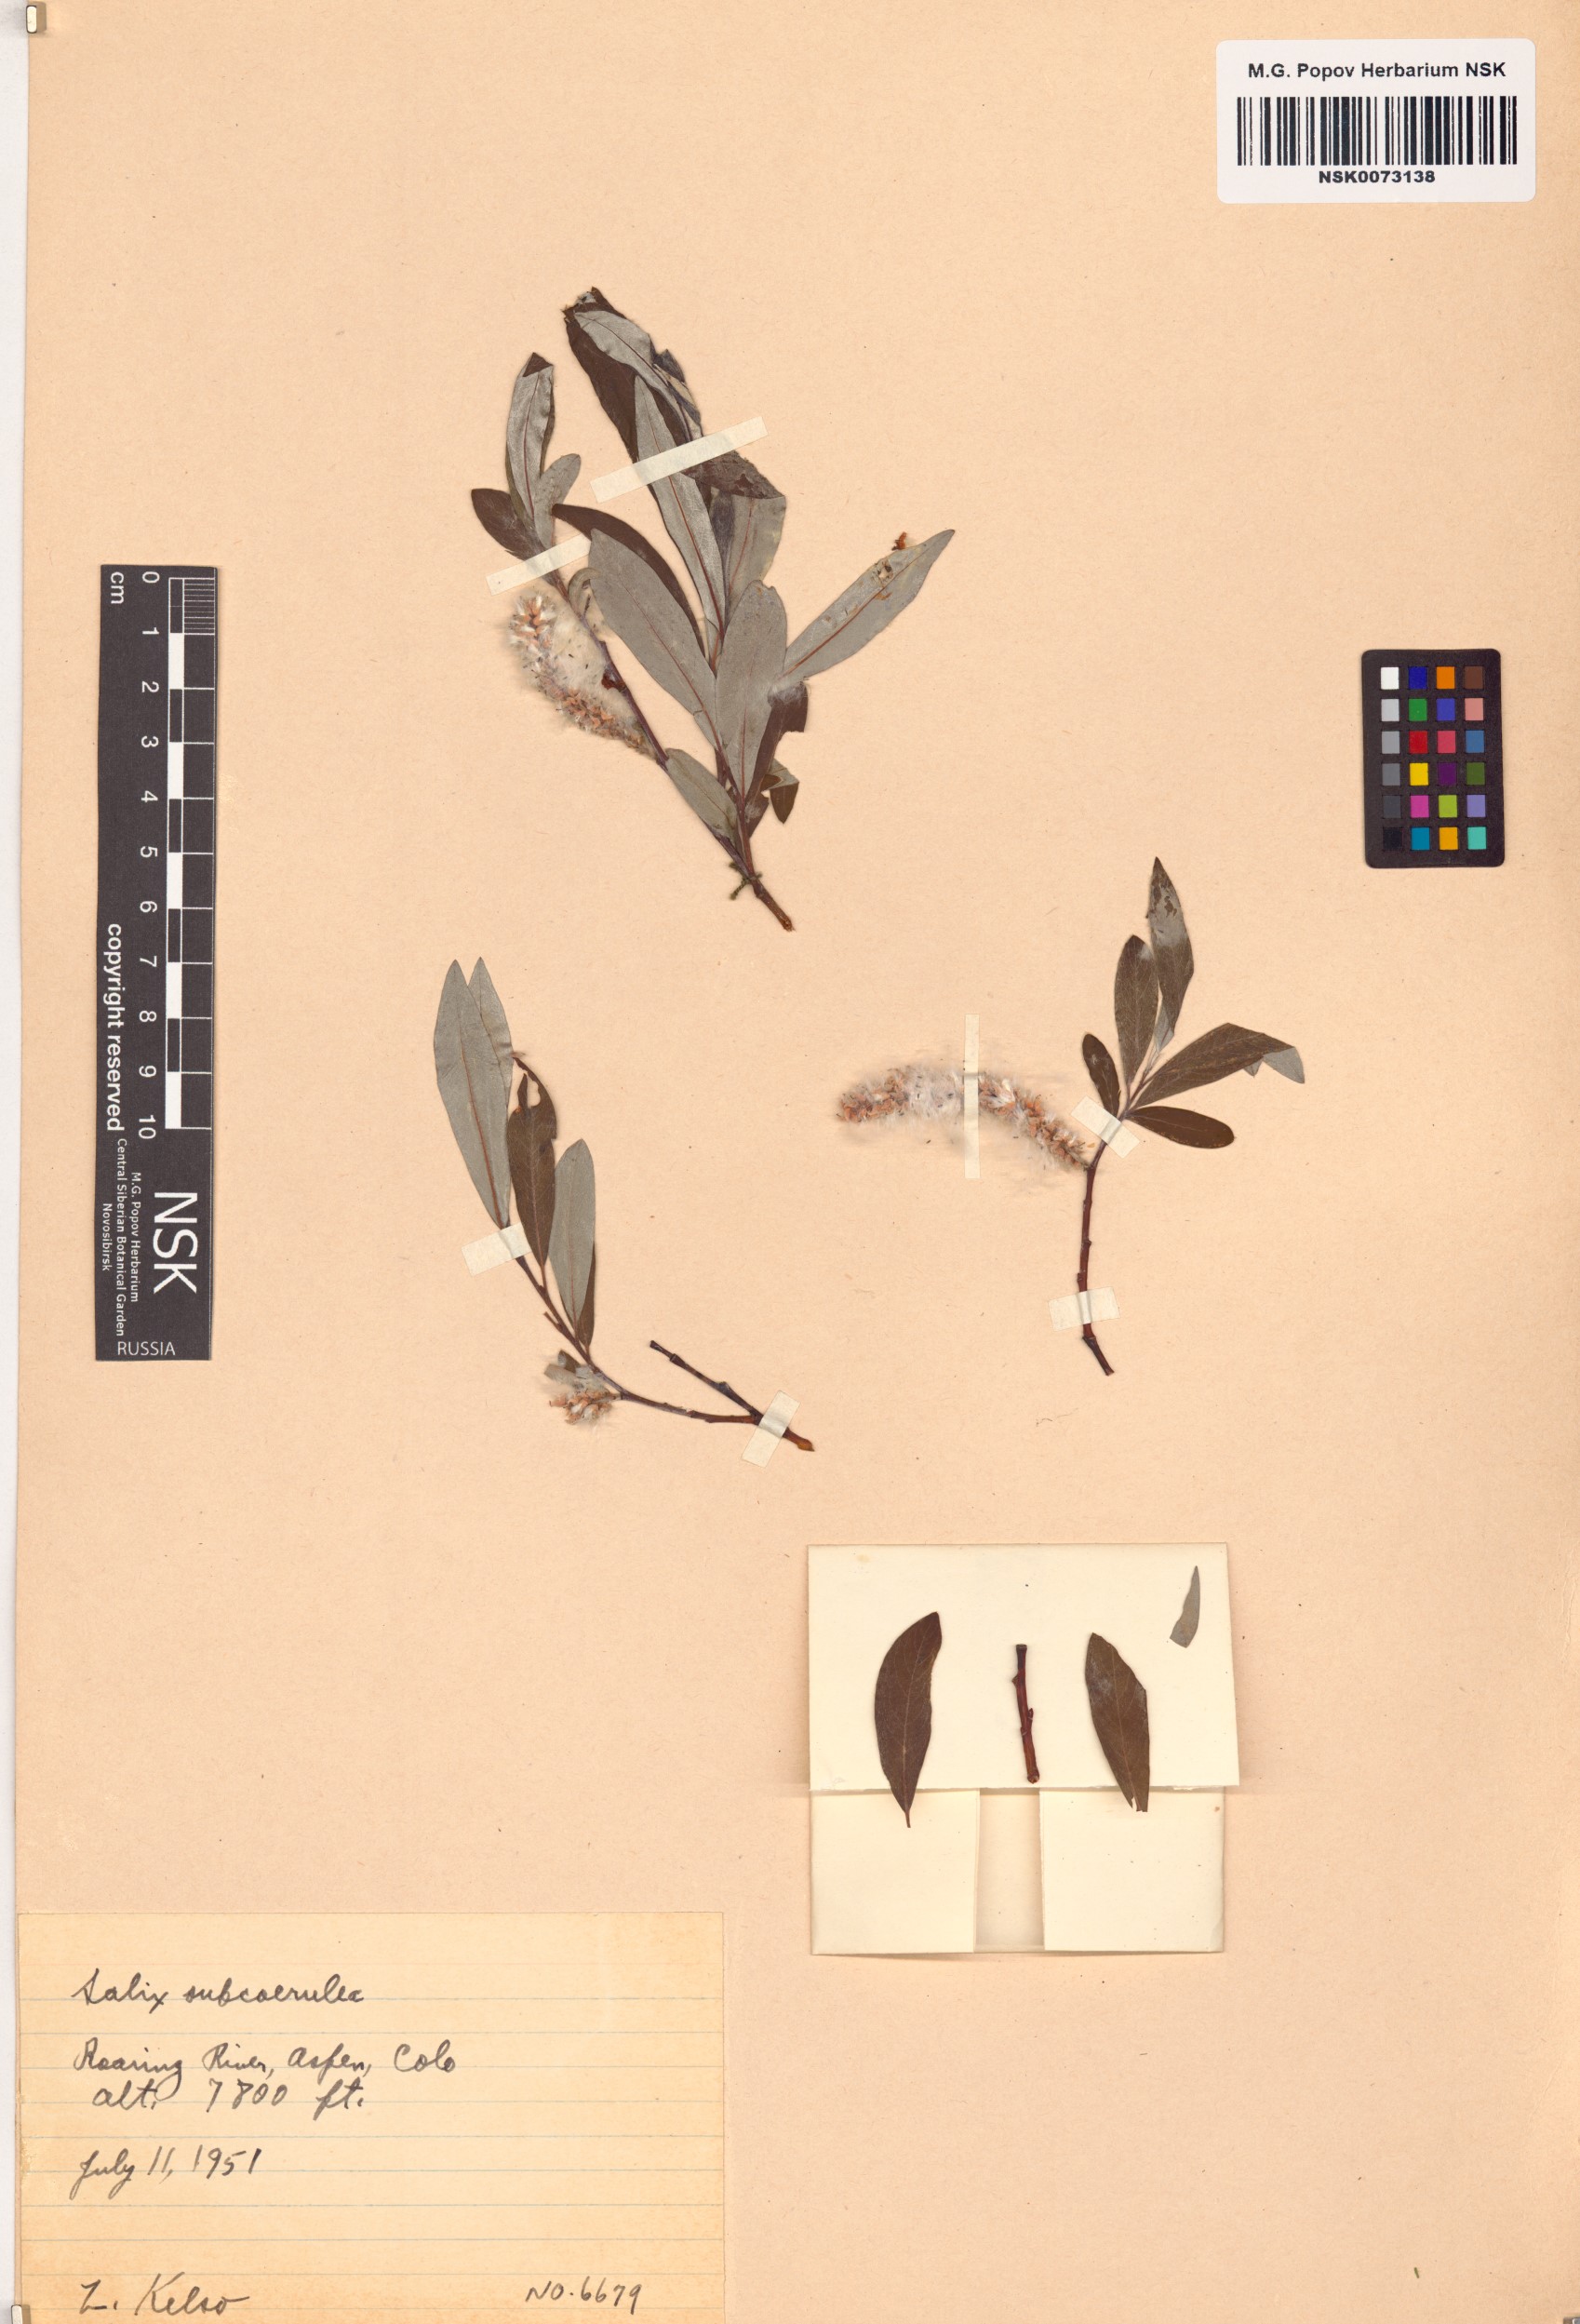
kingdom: Plantae
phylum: Tracheophyta
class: Magnoliopsida
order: Malpighiales
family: Salicaceae
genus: Salix
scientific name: Salix drummondiana
